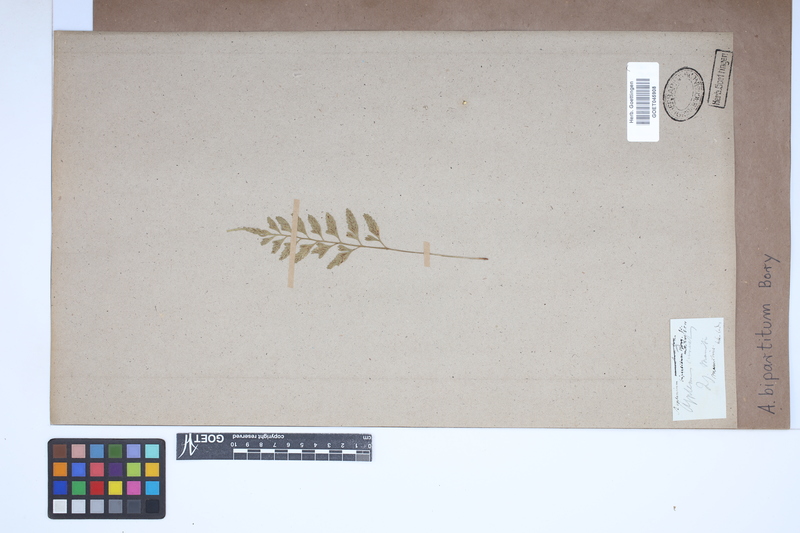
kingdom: Plantae
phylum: Tracheophyta
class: Polypodiopsida
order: Polypodiales
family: Aspleniaceae
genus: Asplenium
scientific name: Asplenium bipartitum
